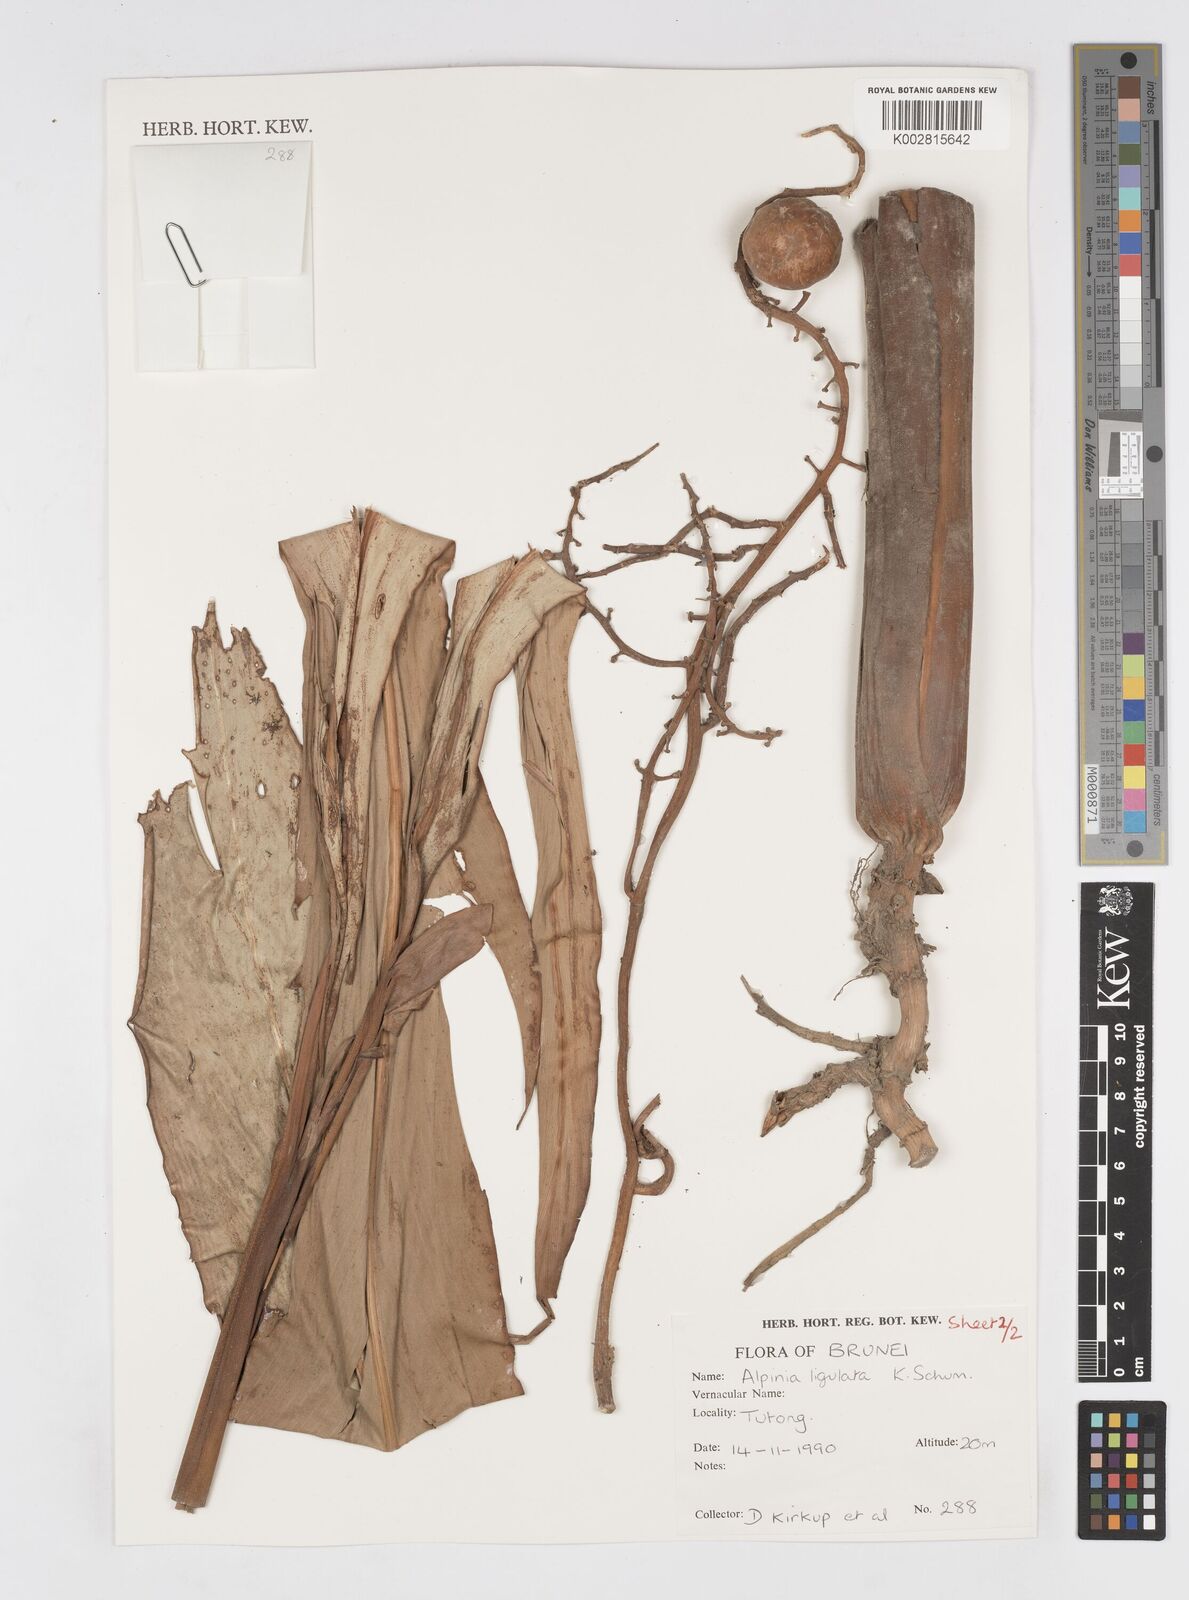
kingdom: Plantae
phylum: Tracheophyta
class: Liliopsida
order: Zingiberales
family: Zingiberaceae
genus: Alpinia
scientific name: Alpinia ligulata
